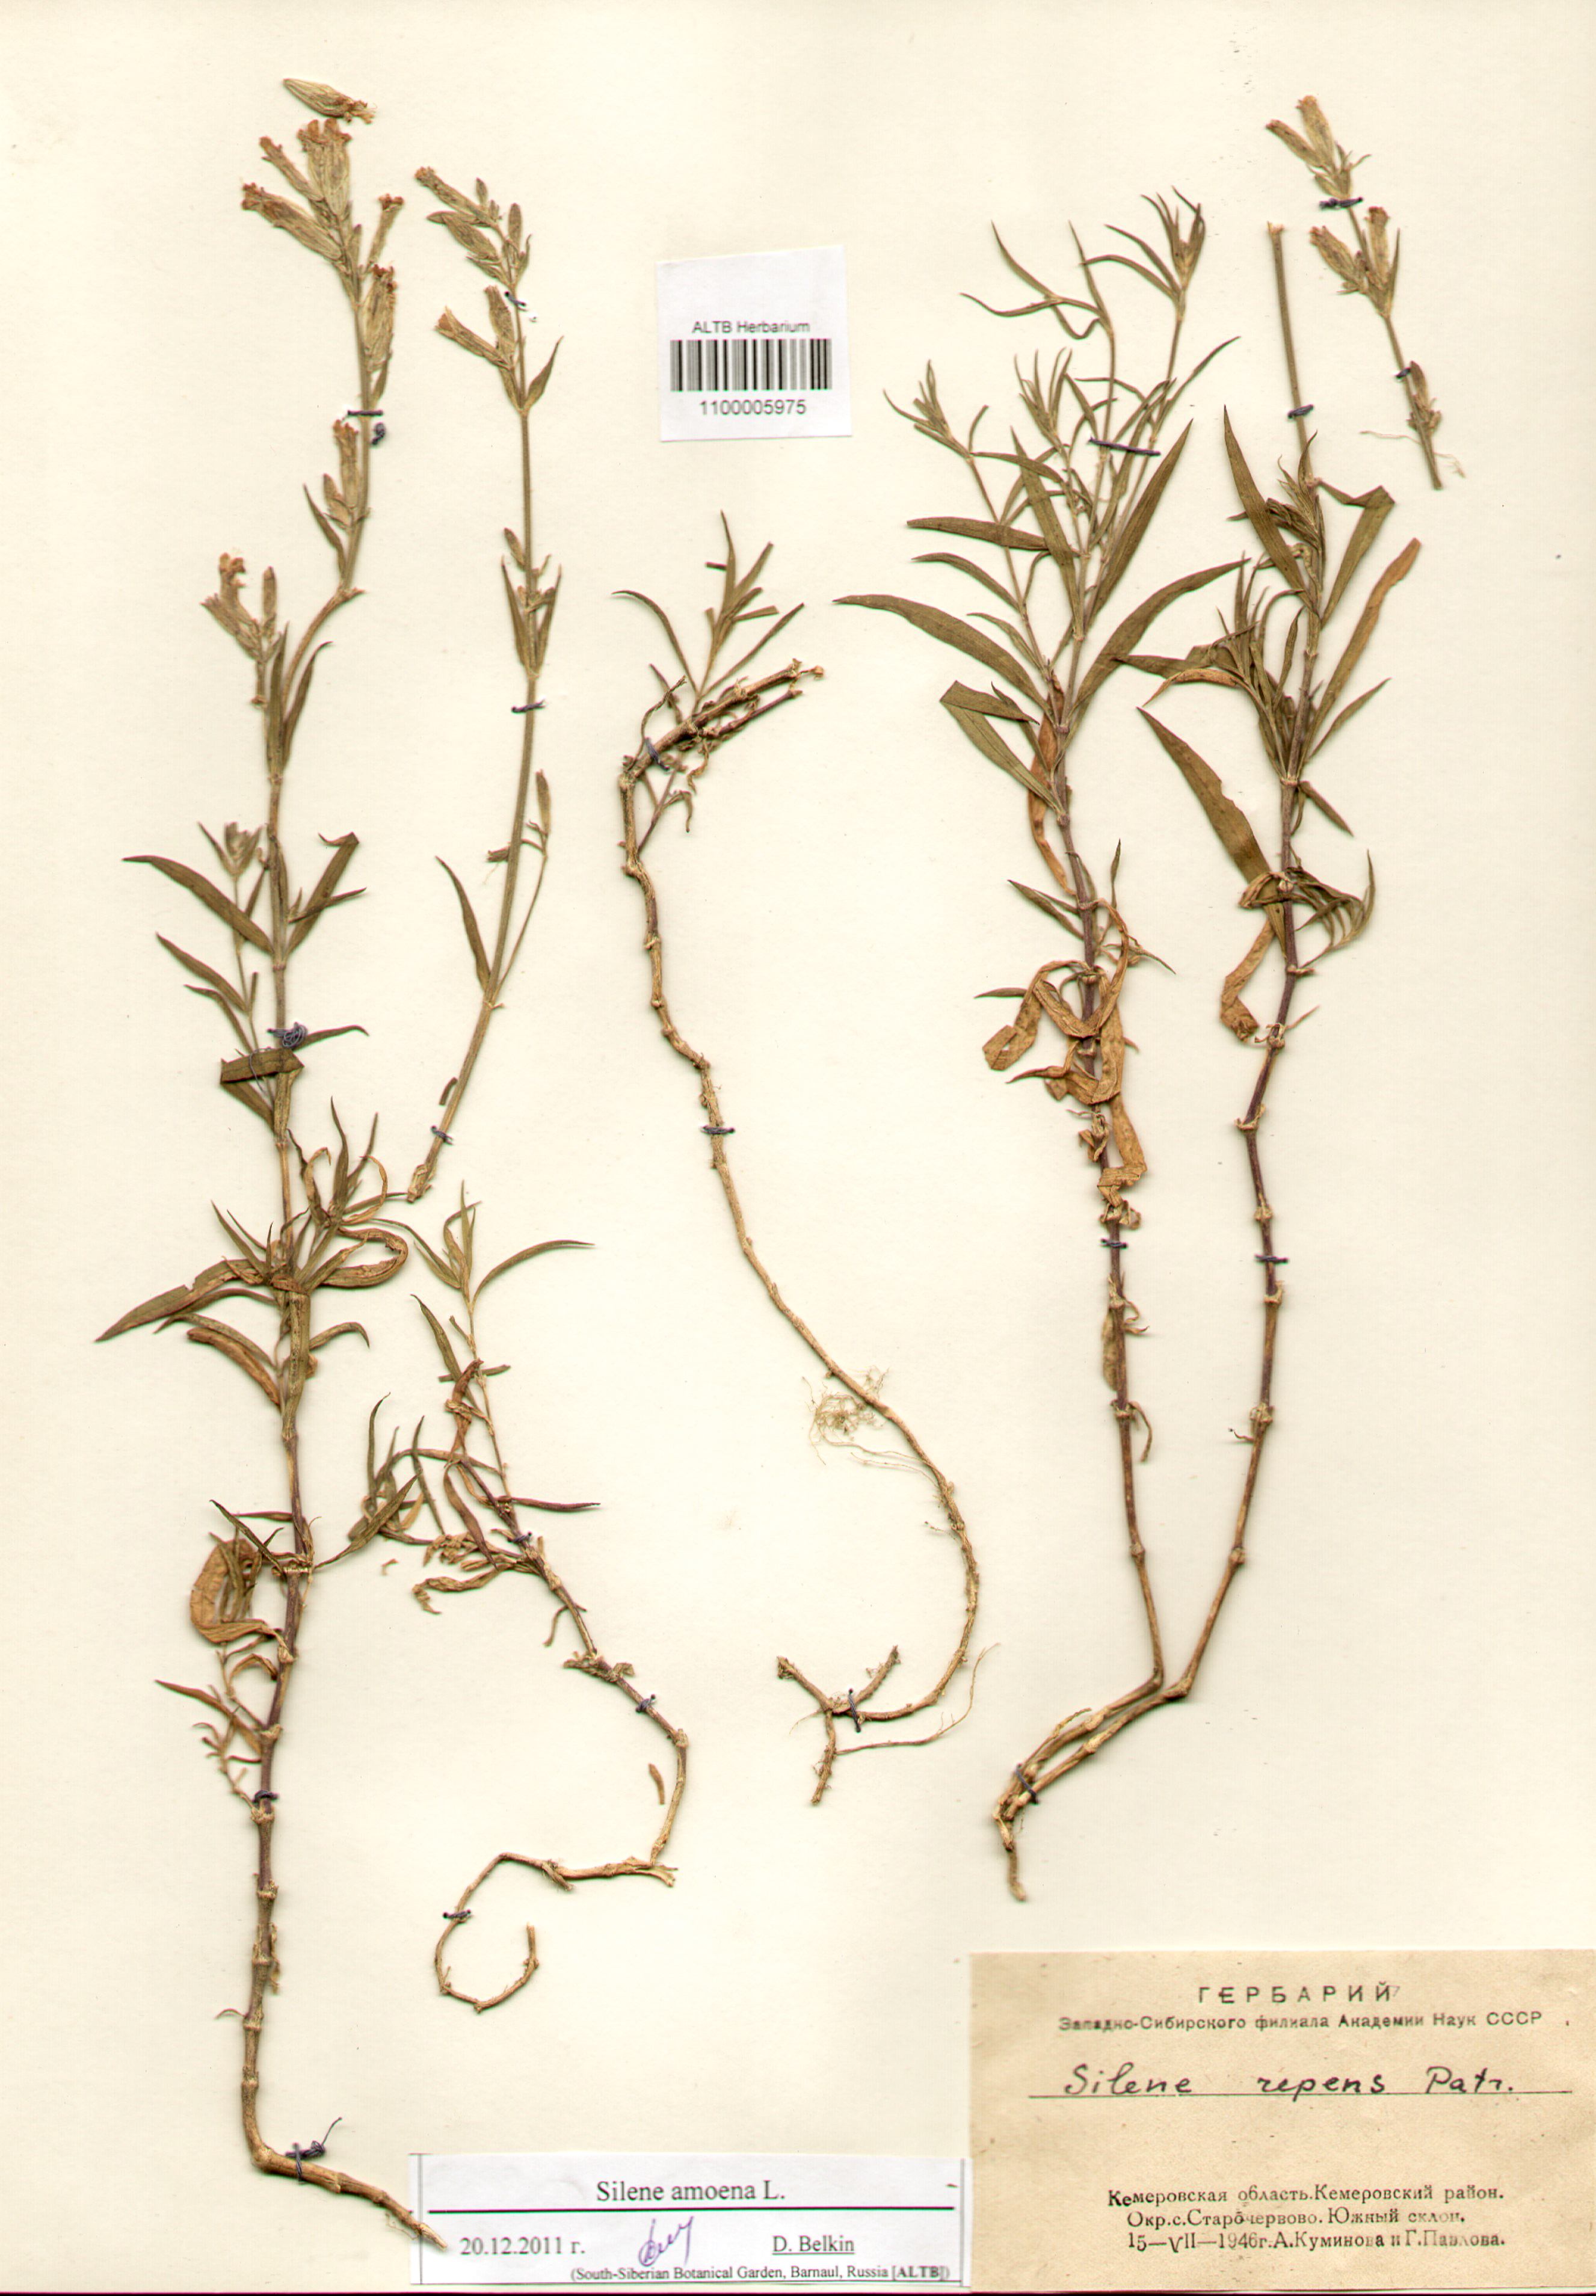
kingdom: Plantae
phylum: Tracheophyta
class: Magnoliopsida
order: Caryophyllales
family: Caryophyllaceae
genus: Silene
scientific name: Silene amoena
